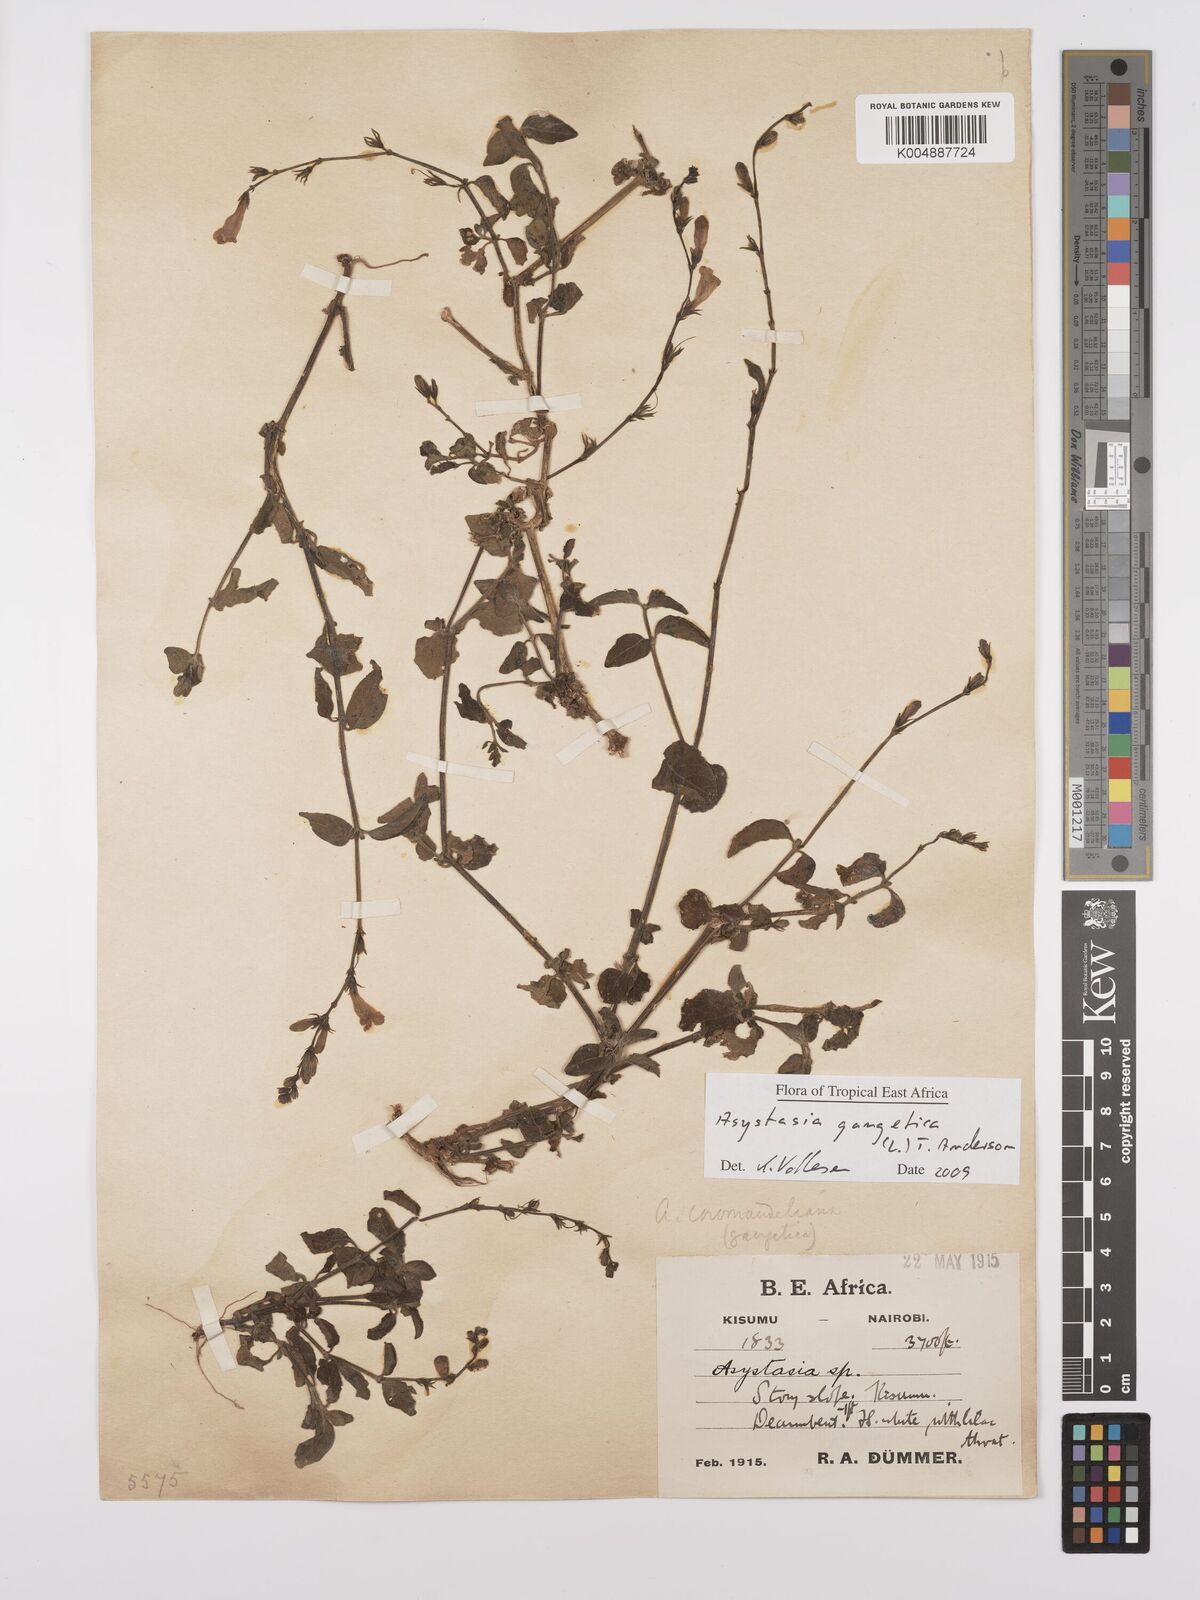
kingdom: Plantae
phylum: Tracheophyta
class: Magnoliopsida
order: Lamiales
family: Acanthaceae
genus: Asystasia
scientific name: Asystasia gangetica
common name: Chinese violet
